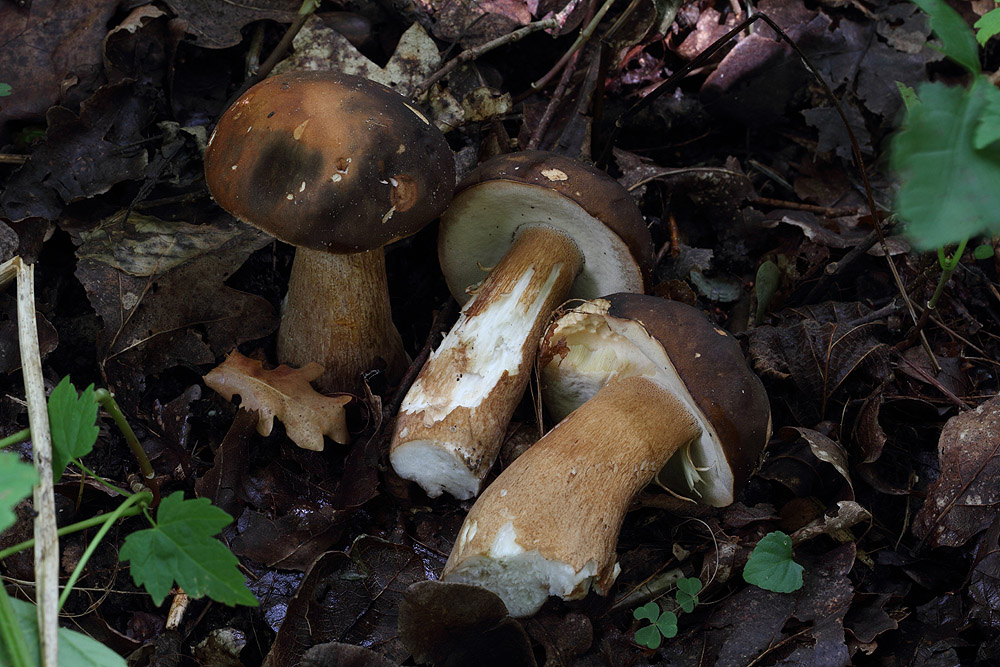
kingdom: Fungi
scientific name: Fungi
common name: bronze-rørhat
